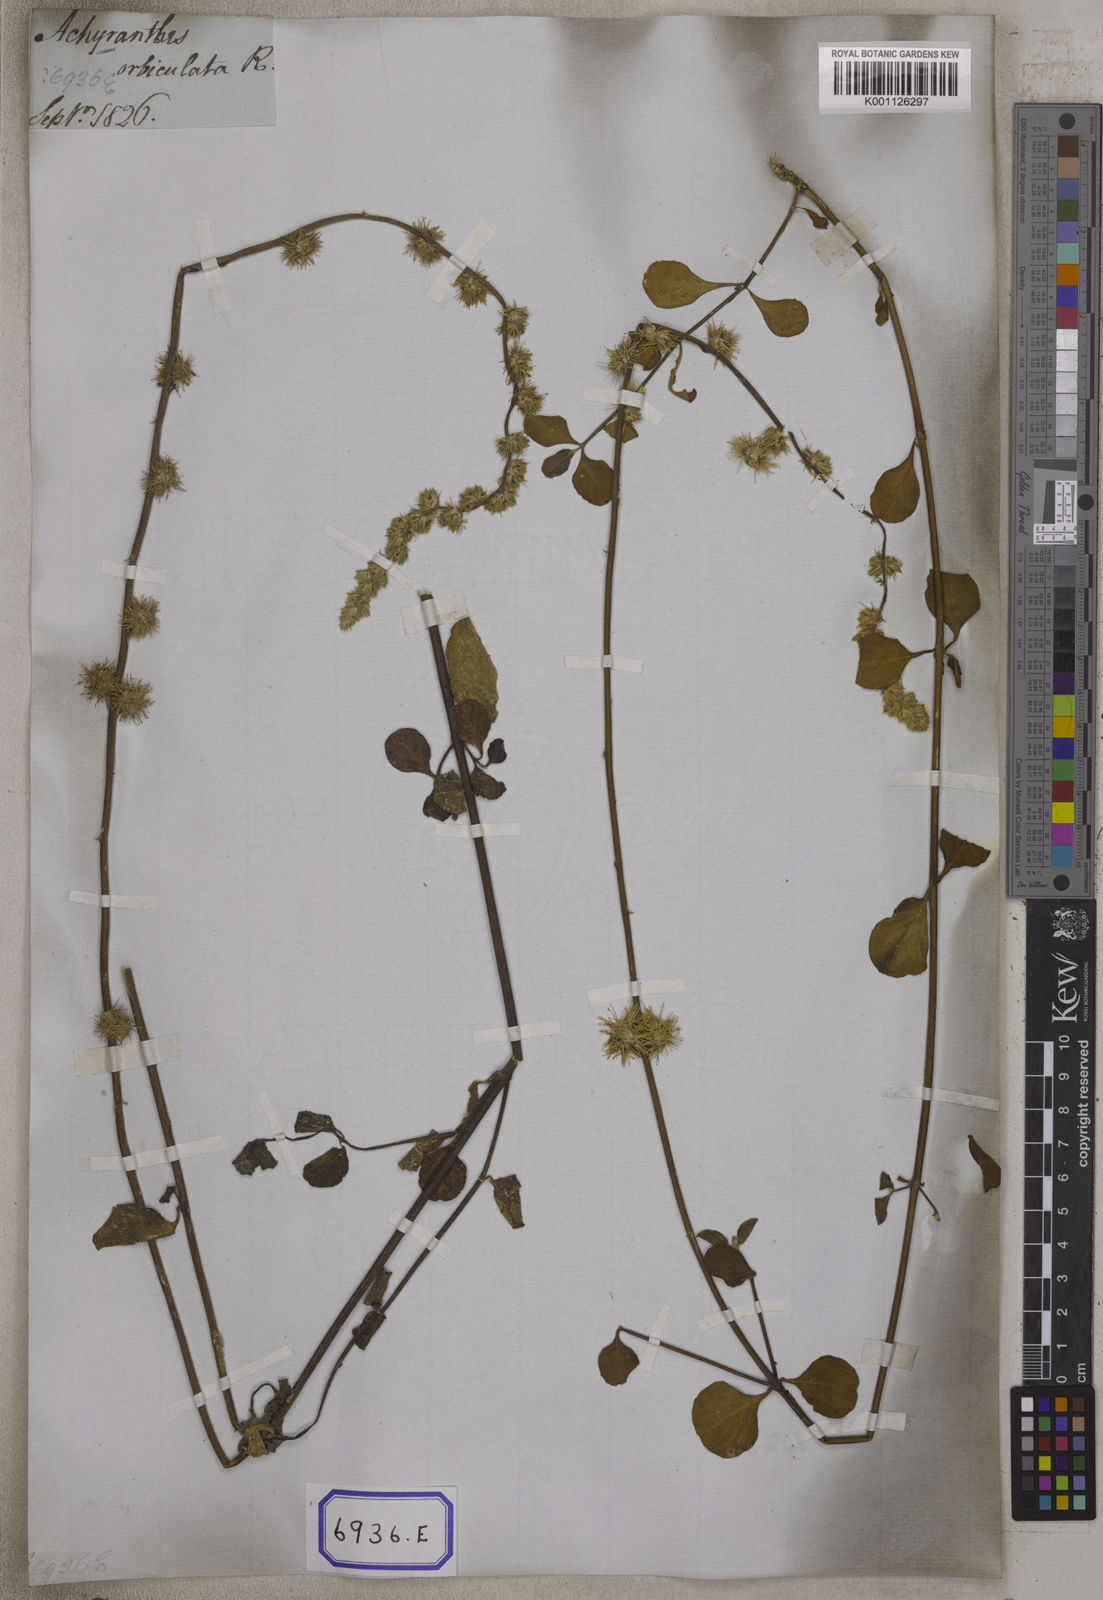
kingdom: Plantae
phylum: Tracheophyta
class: Magnoliopsida
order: Caryophyllales
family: Amaranthaceae
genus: Pupalia
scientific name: Pupalia lappacea
